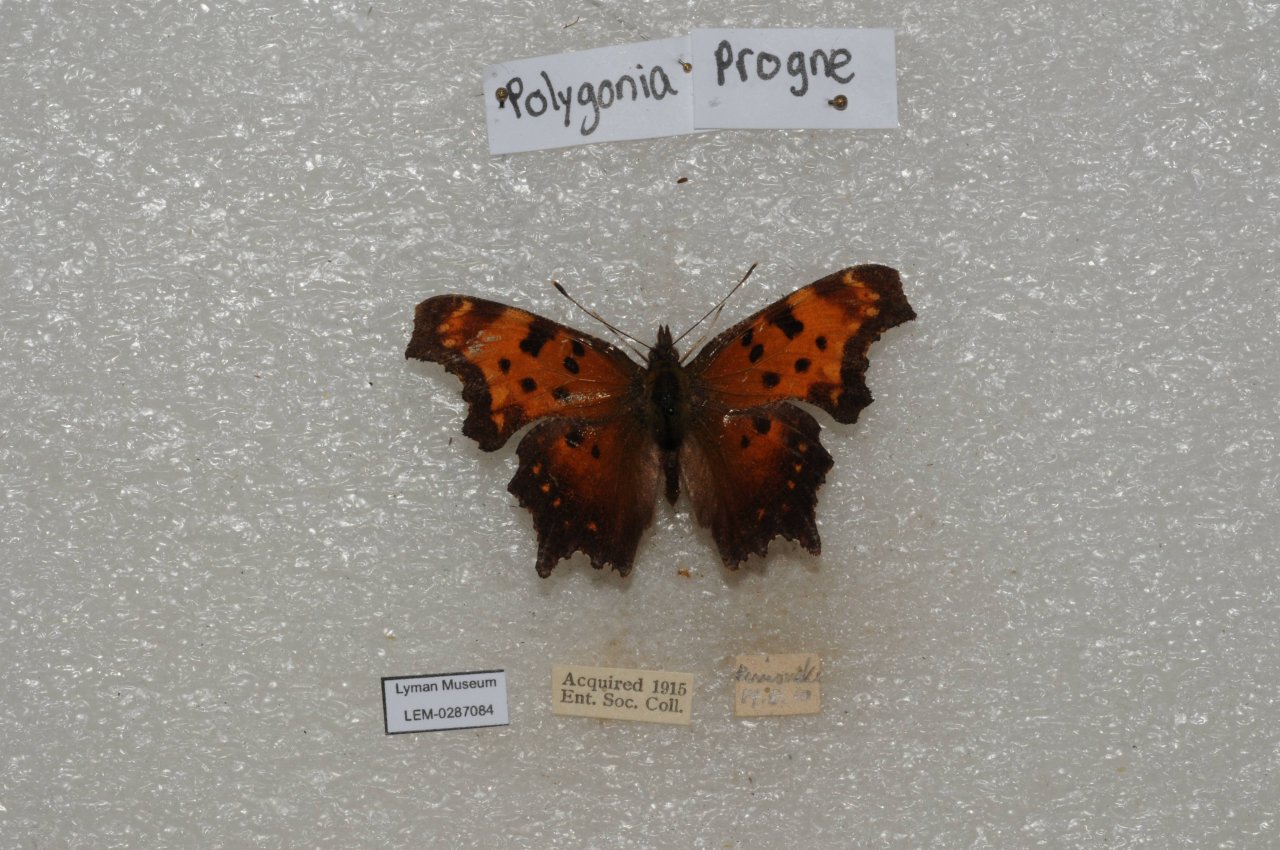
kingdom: Animalia
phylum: Arthropoda
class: Insecta
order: Lepidoptera
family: Nymphalidae
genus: Polygonia
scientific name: Polygonia progne
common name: Gray Comma
